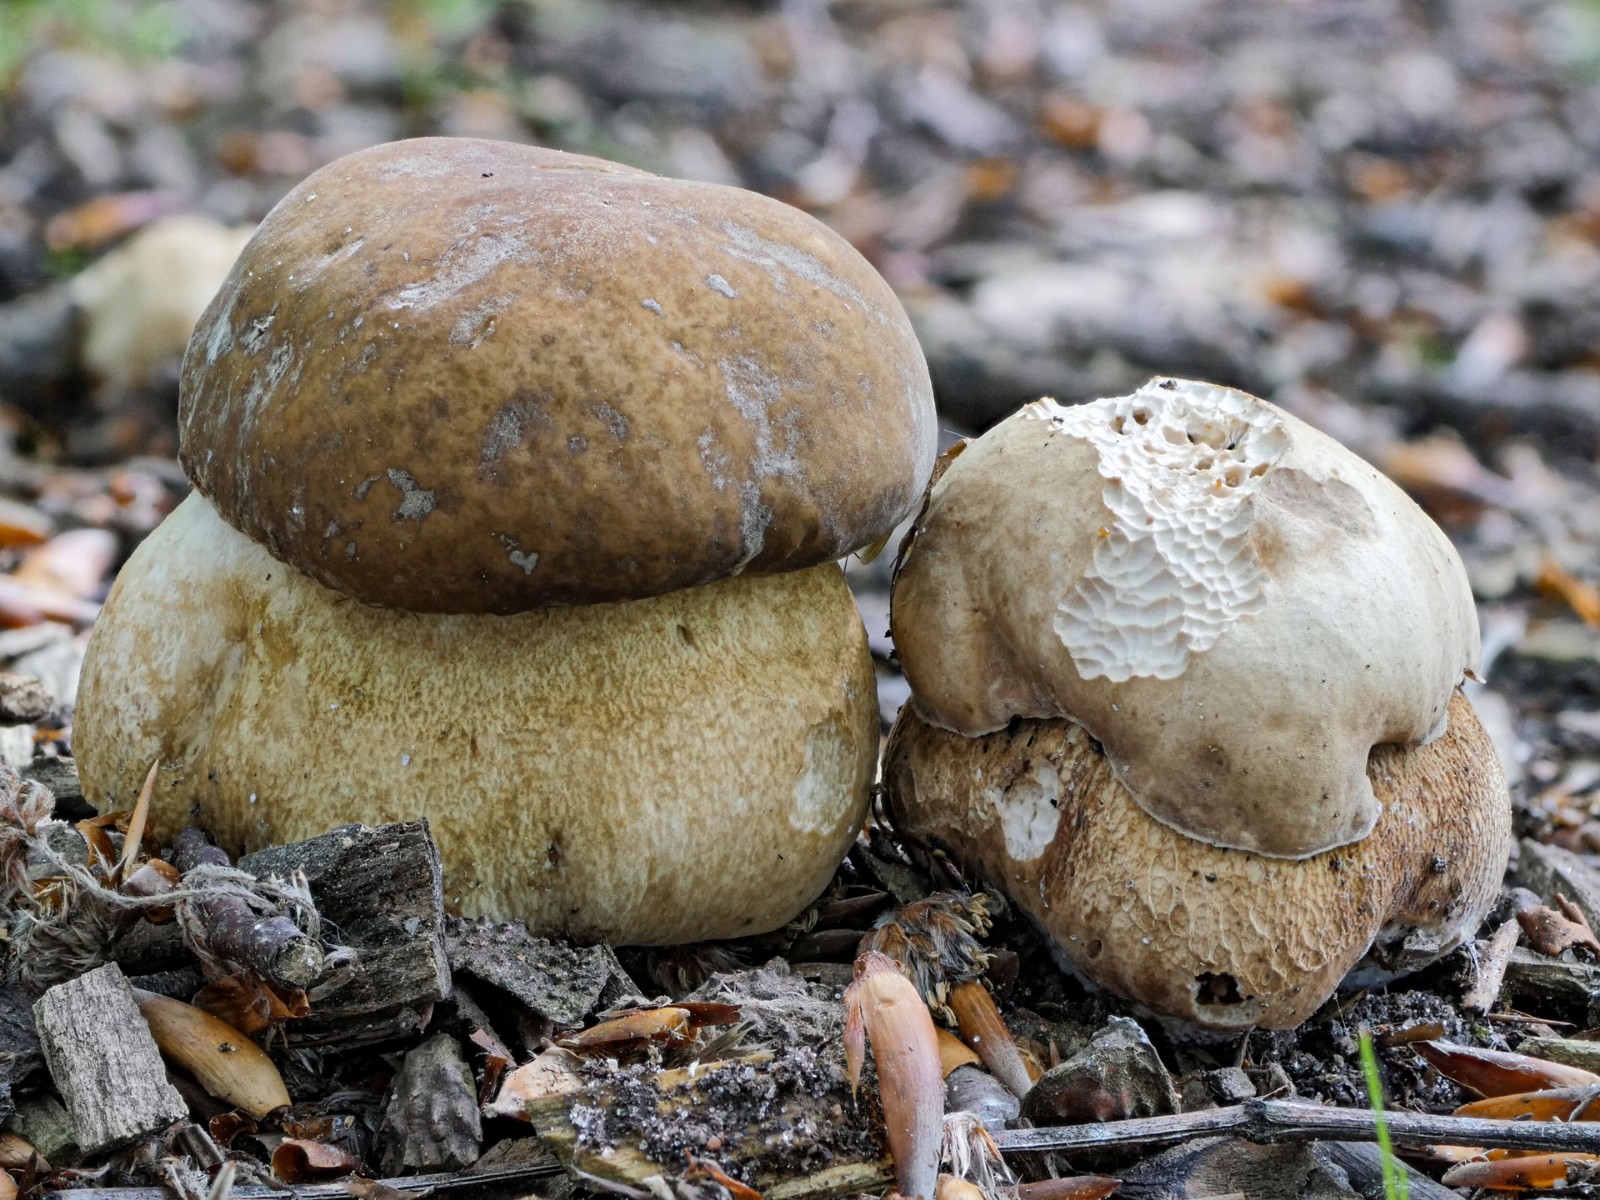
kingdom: Fungi
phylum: Basidiomycota
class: Agaricomycetes
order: Boletales
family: Boletaceae
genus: Boletus
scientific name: Boletus reticulatus
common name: sommer-rørhat
